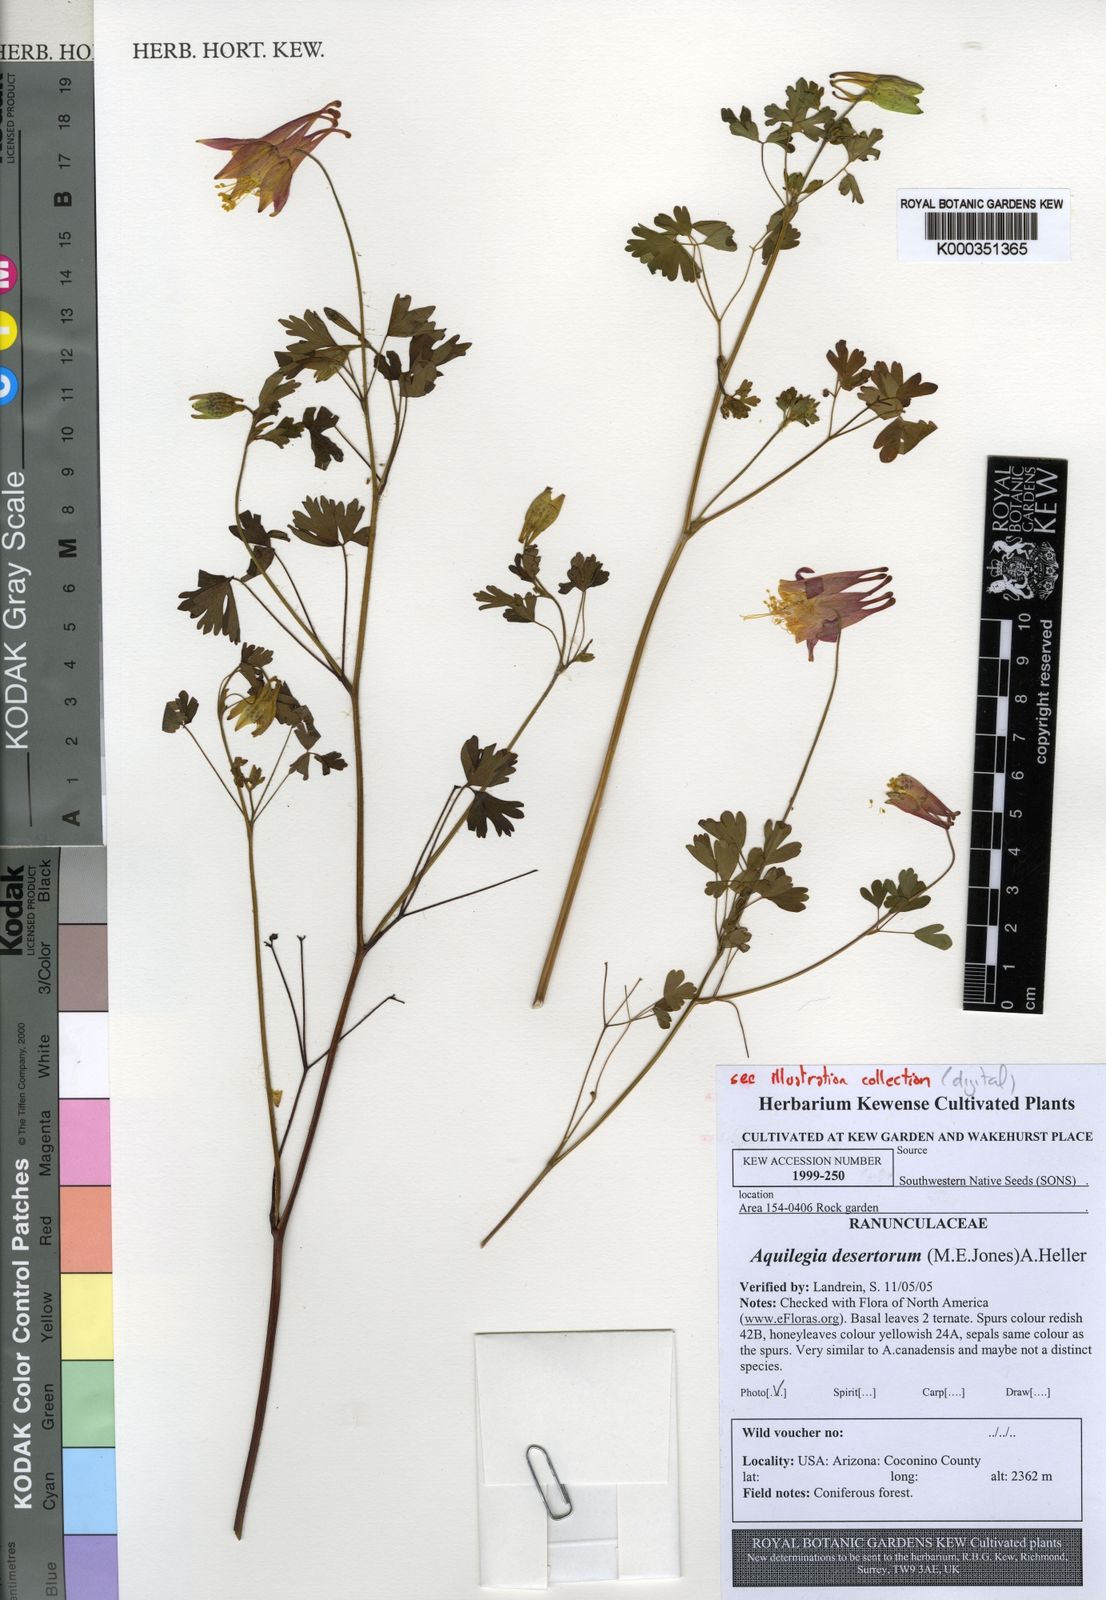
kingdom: Plantae
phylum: Tracheophyta
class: Magnoliopsida
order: Ranunculales
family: Ranunculaceae
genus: Aquilegia
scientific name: Aquilegia desertorum
